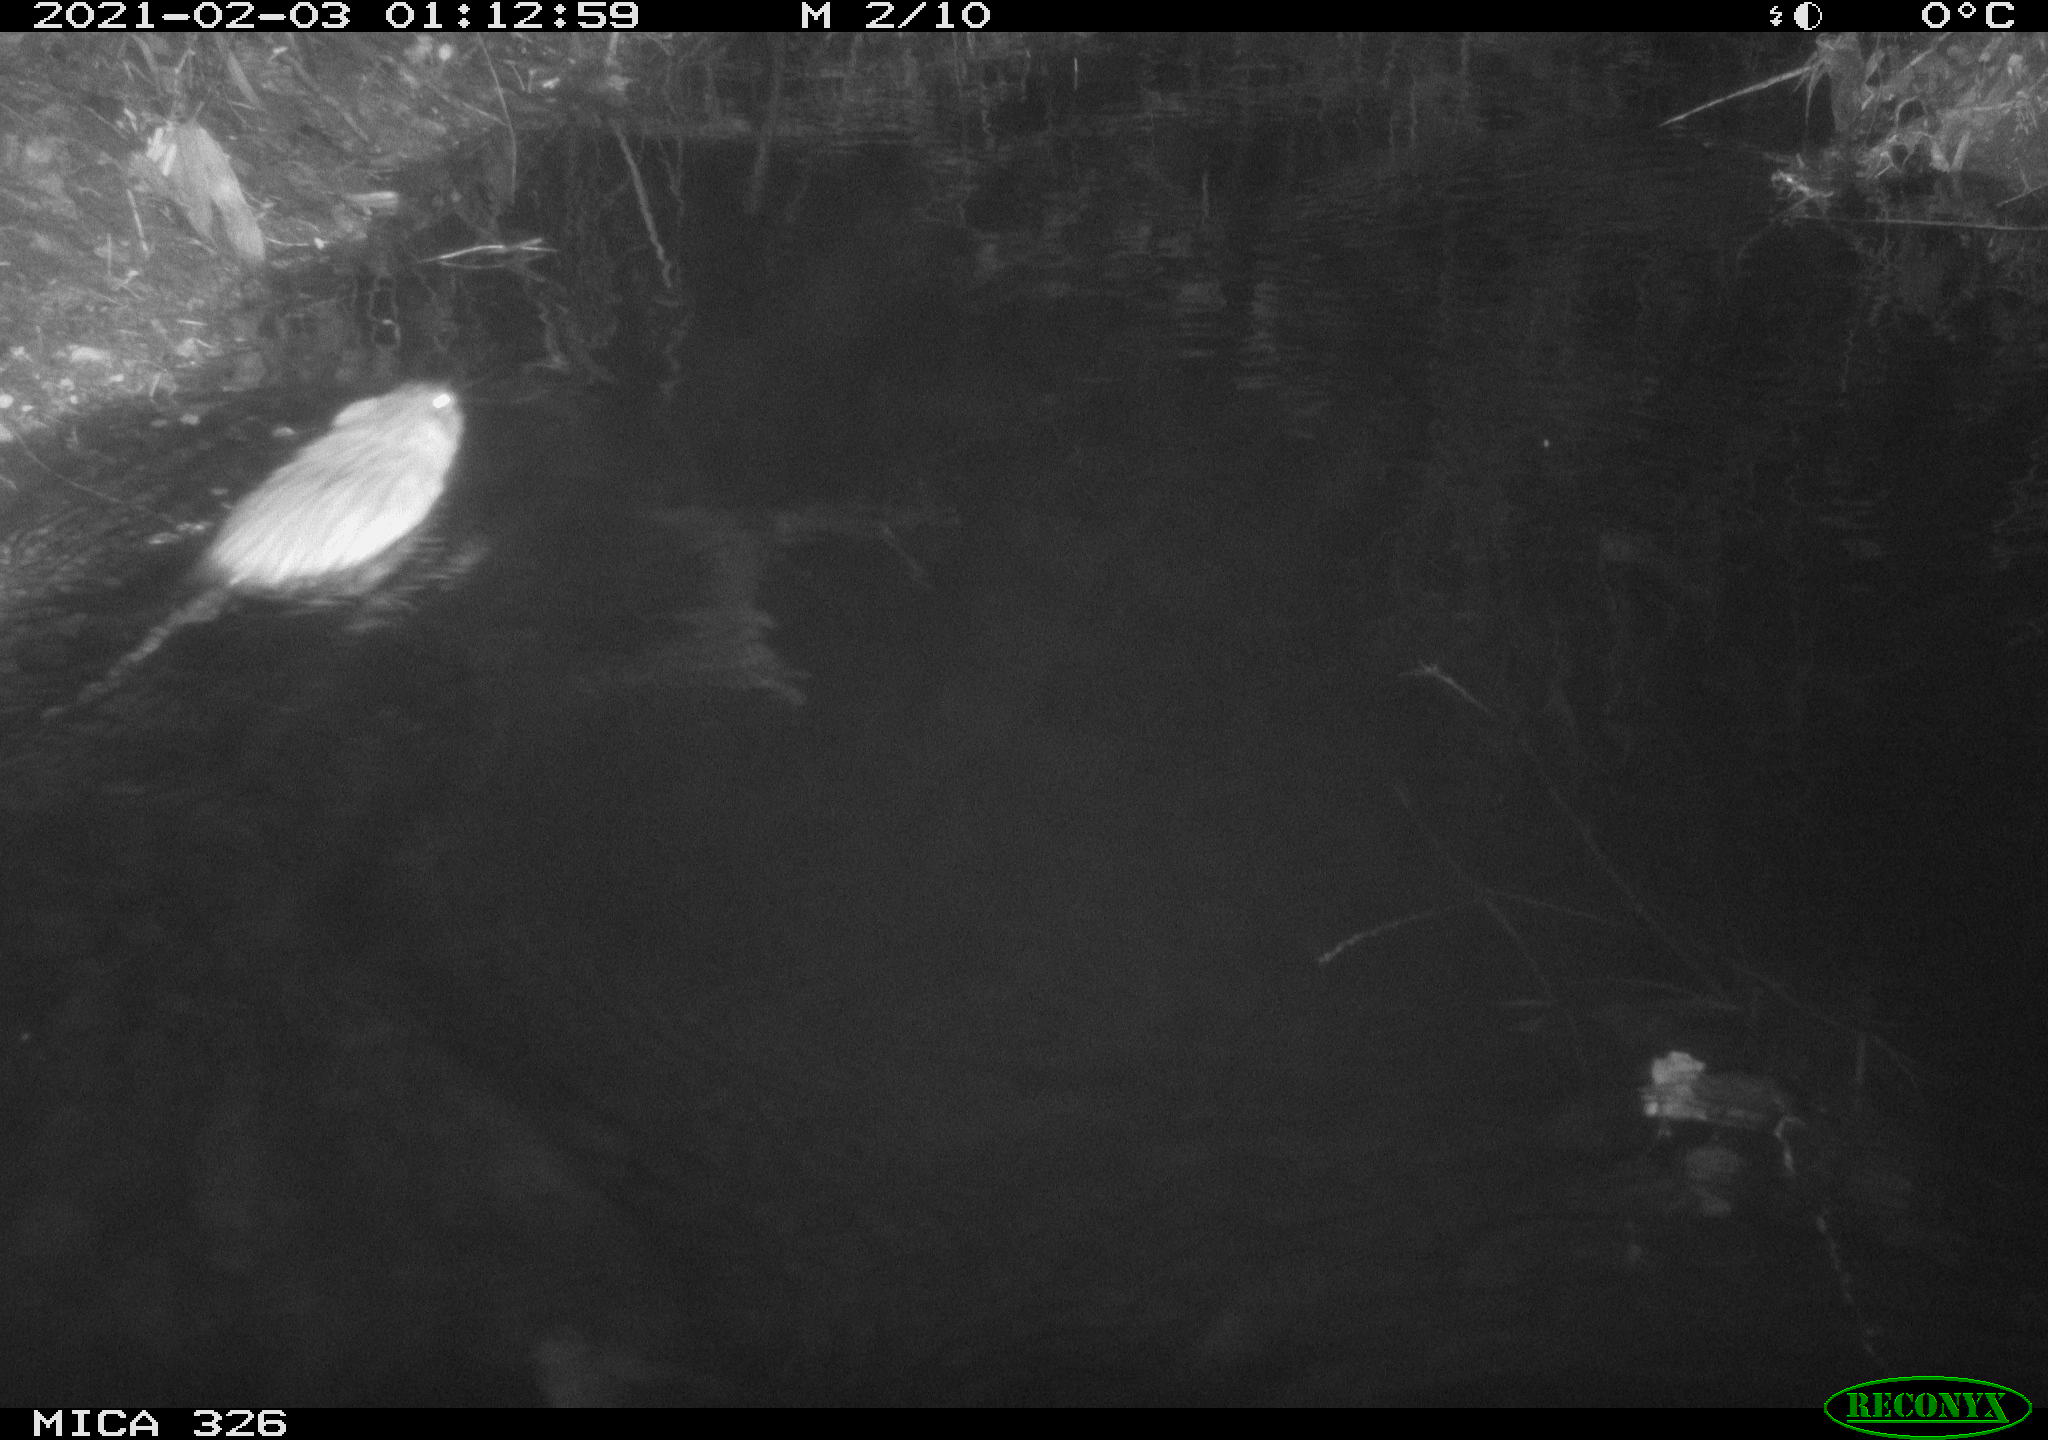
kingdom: Animalia
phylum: Chordata
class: Mammalia
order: Rodentia
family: Cricetidae
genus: Ondatra
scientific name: Ondatra zibethicus
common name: Muskrat
